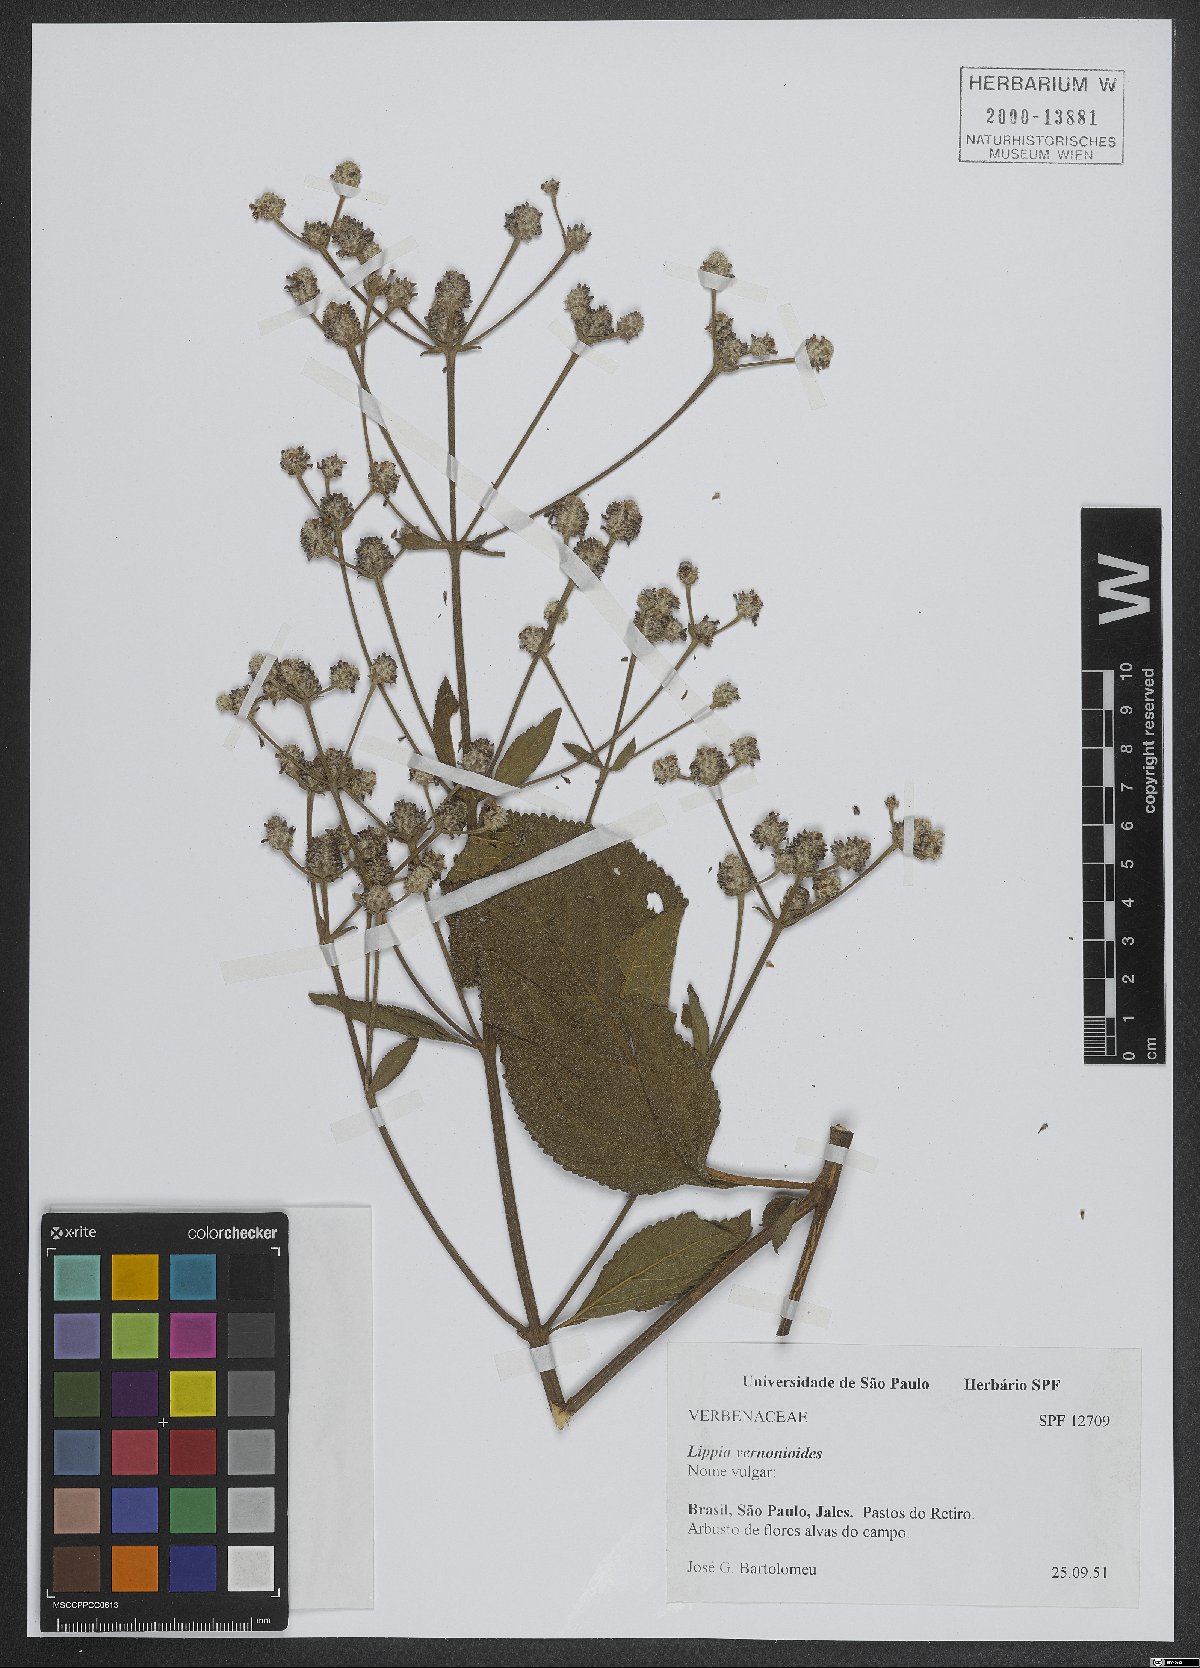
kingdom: Plantae
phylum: Tracheophyta
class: Magnoliopsida
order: Lamiales
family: Verbenaceae
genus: Lippia
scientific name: Lippia vernonioides
